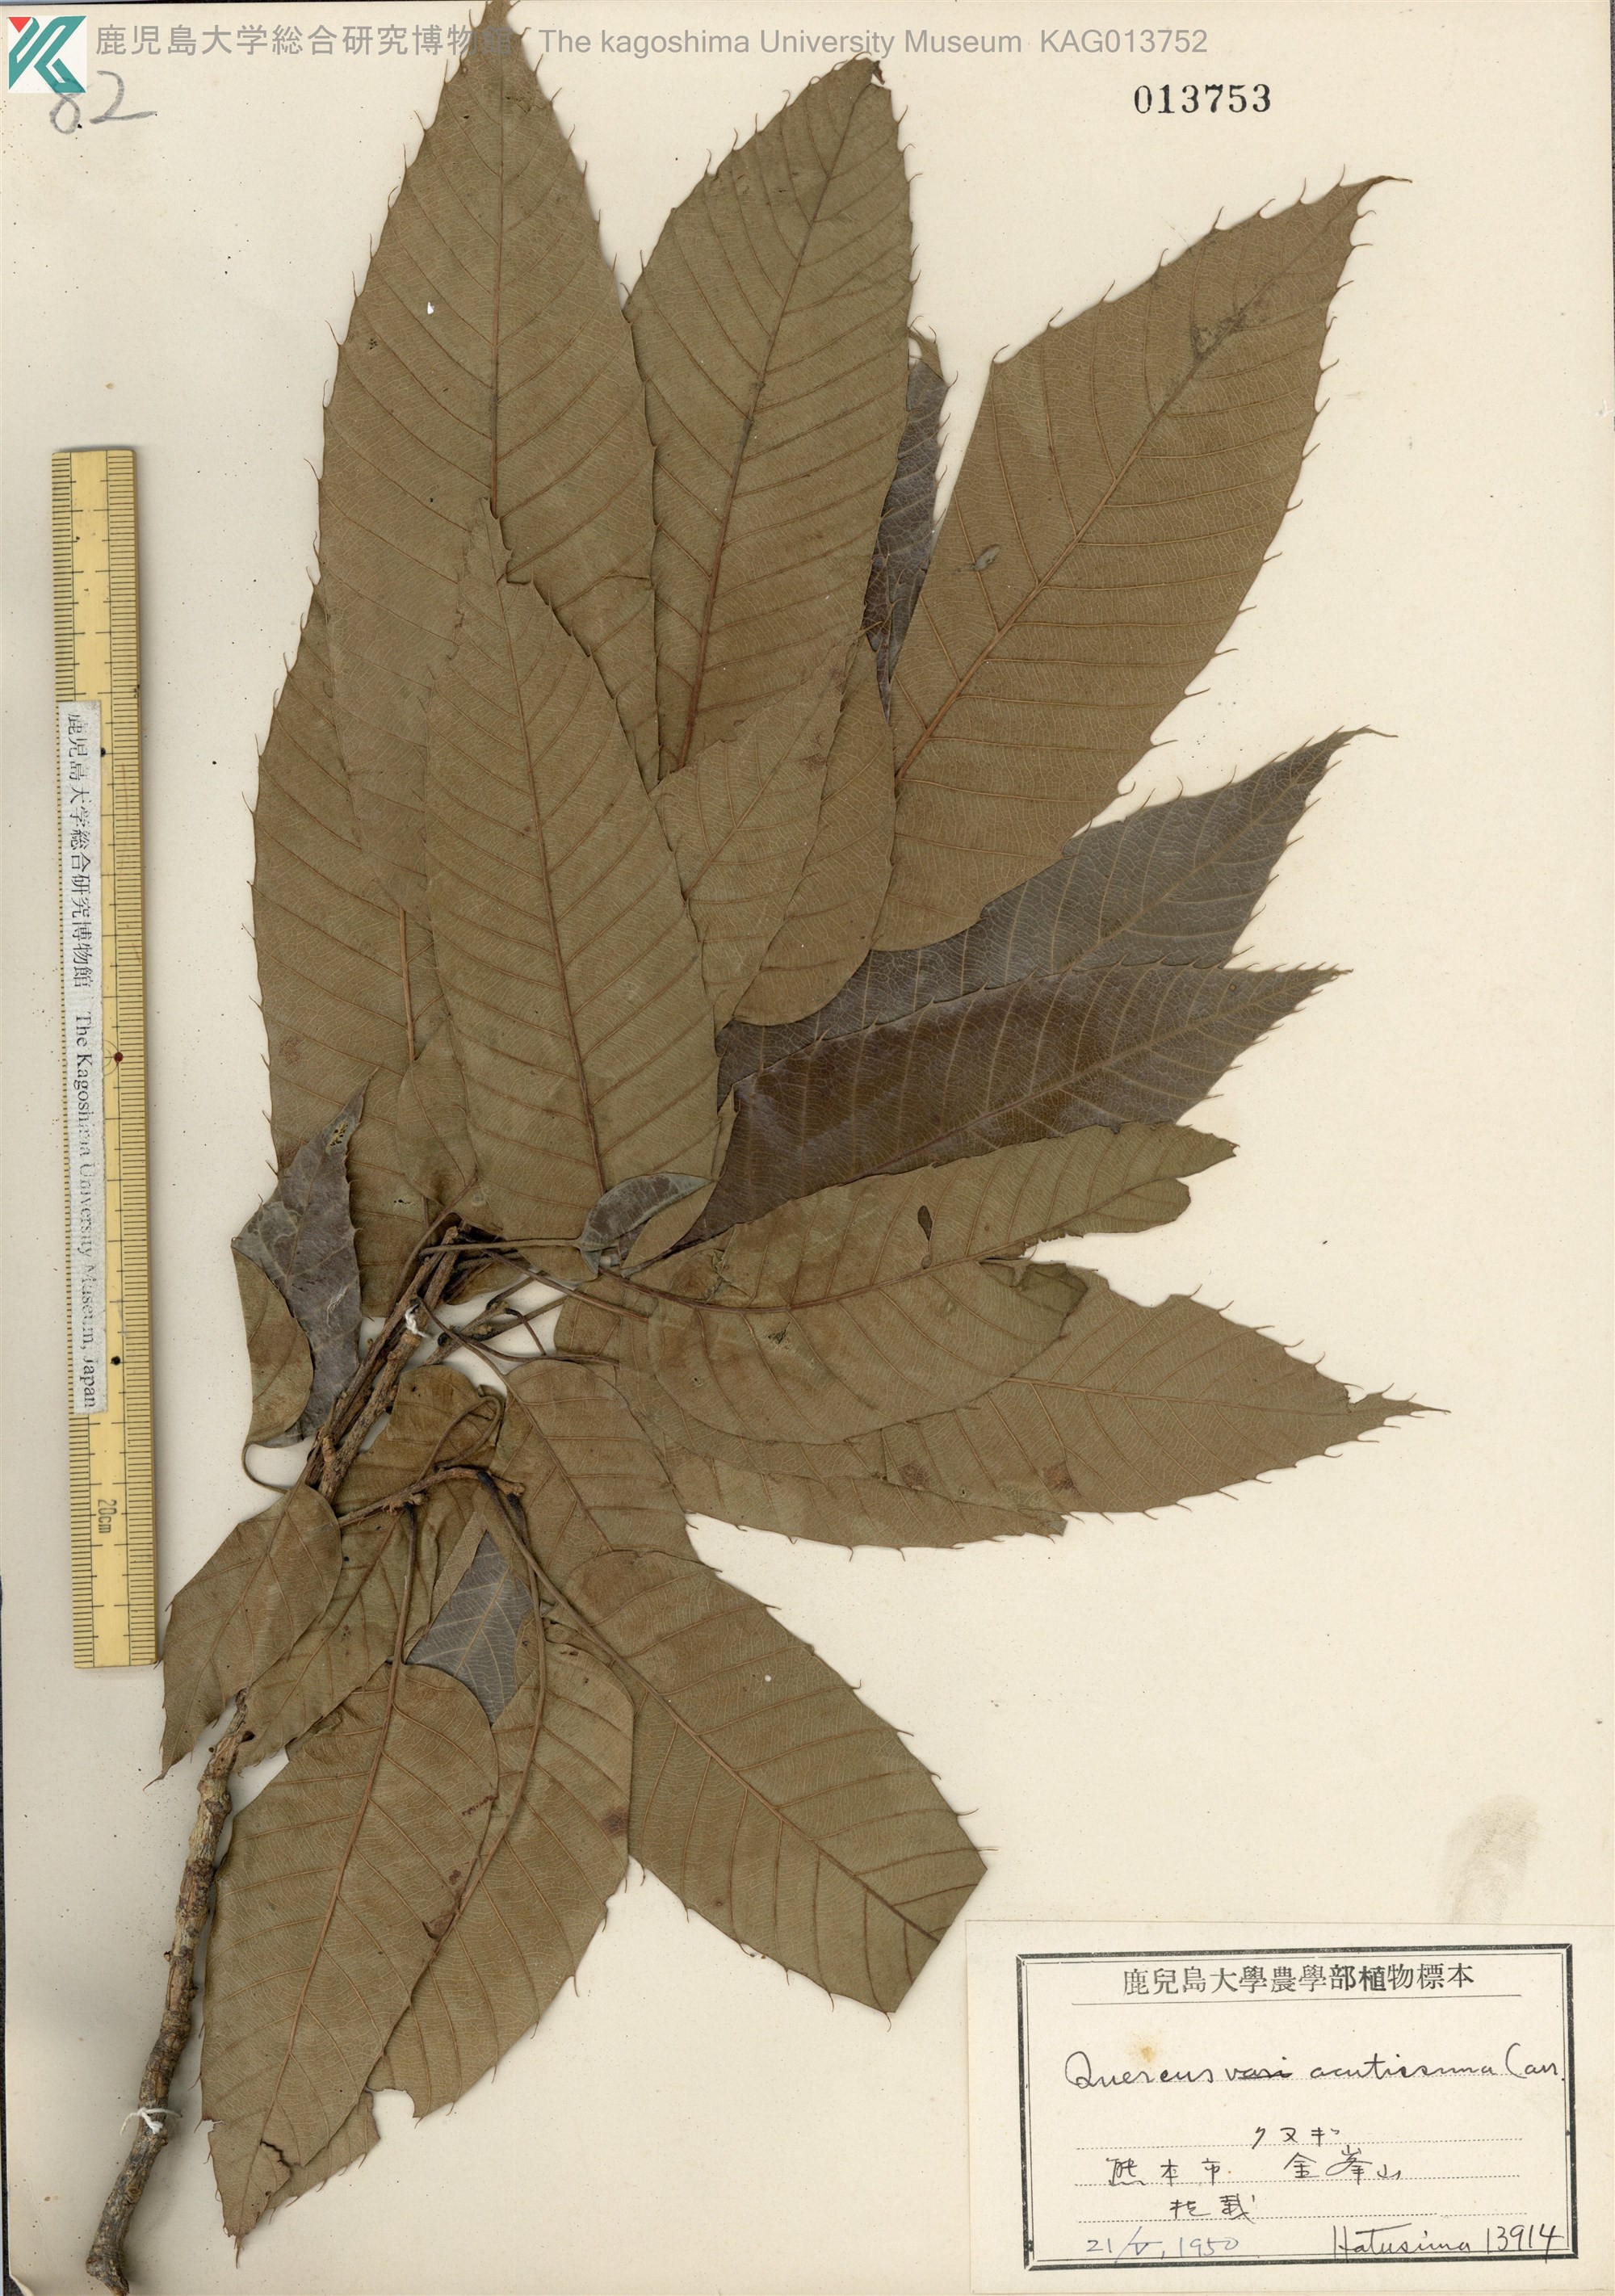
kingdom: Plantae
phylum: Tracheophyta
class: Magnoliopsida
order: Fagales
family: Fagaceae
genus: Quercus
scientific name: Quercus acutissima
